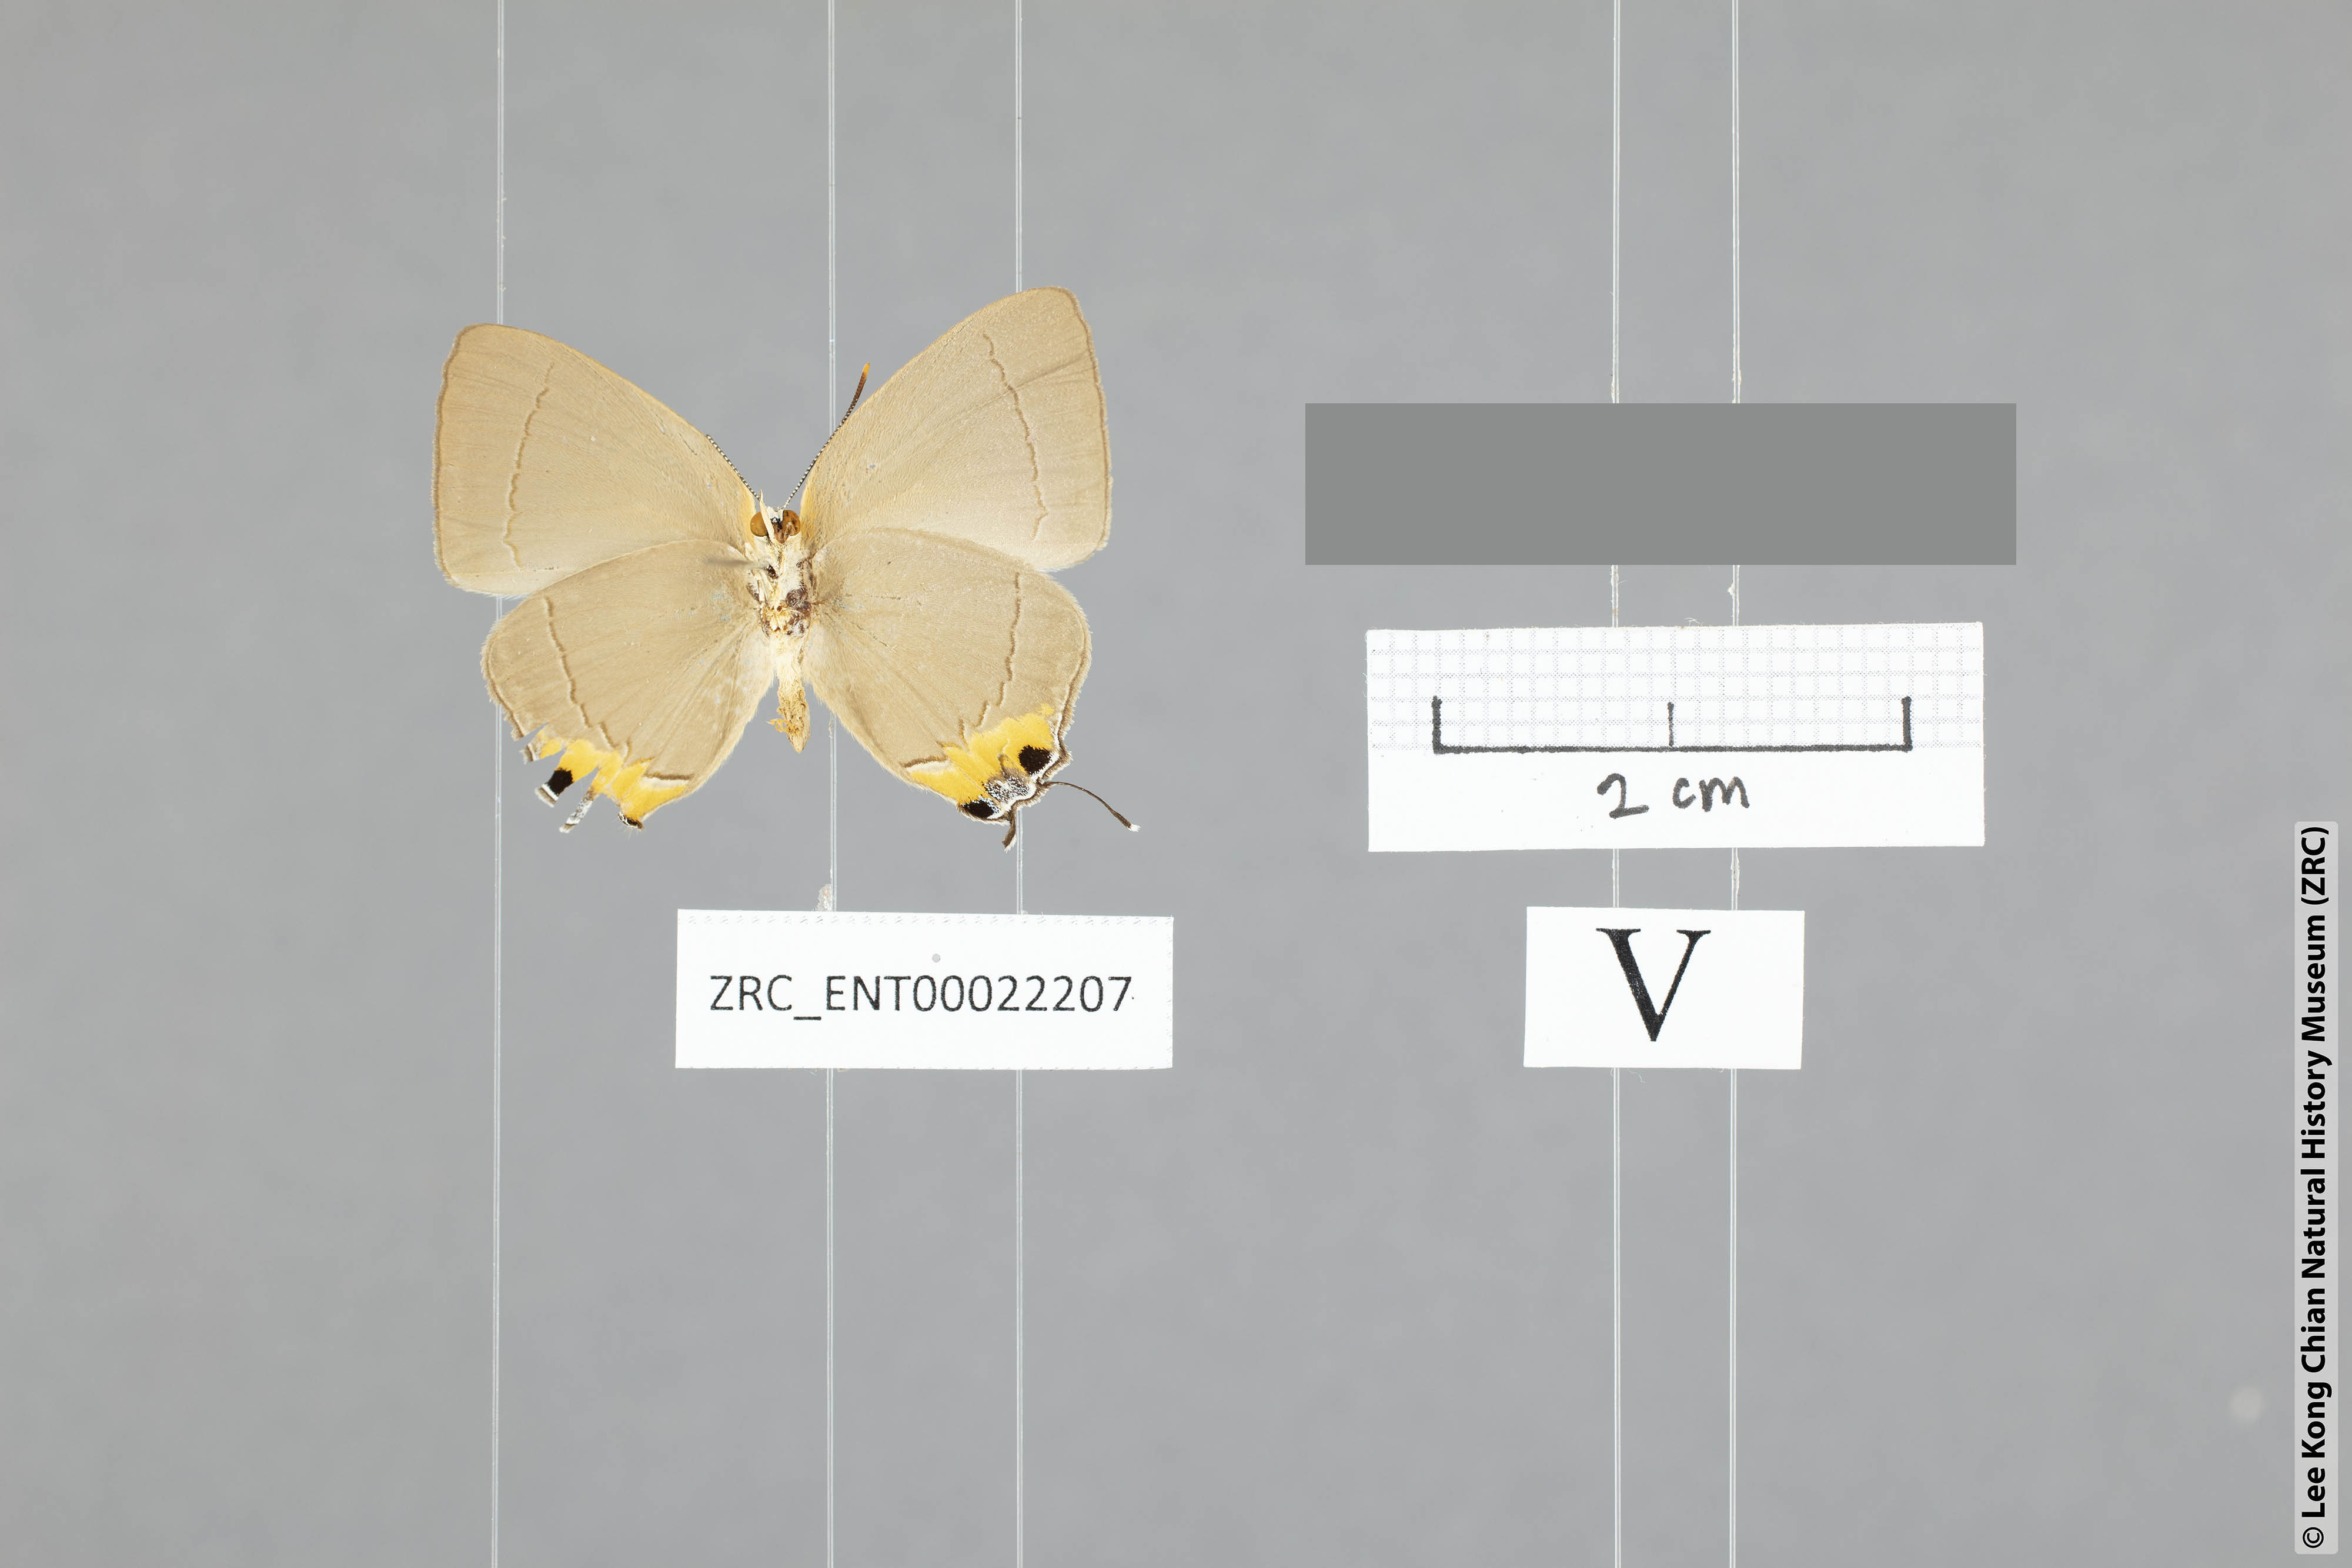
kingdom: Animalia
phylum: Arthropoda
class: Insecta
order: Lepidoptera
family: Lycaenidae
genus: Tajuria
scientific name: Tajuria isaeus
